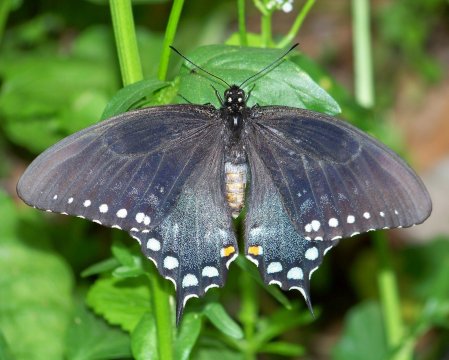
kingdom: Animalia
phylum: Arthropoda
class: Insecta
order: Lepidoptera
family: Papilionidae
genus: Pterourus
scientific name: Pterourus troilus
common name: Spicebush Swallowtail
